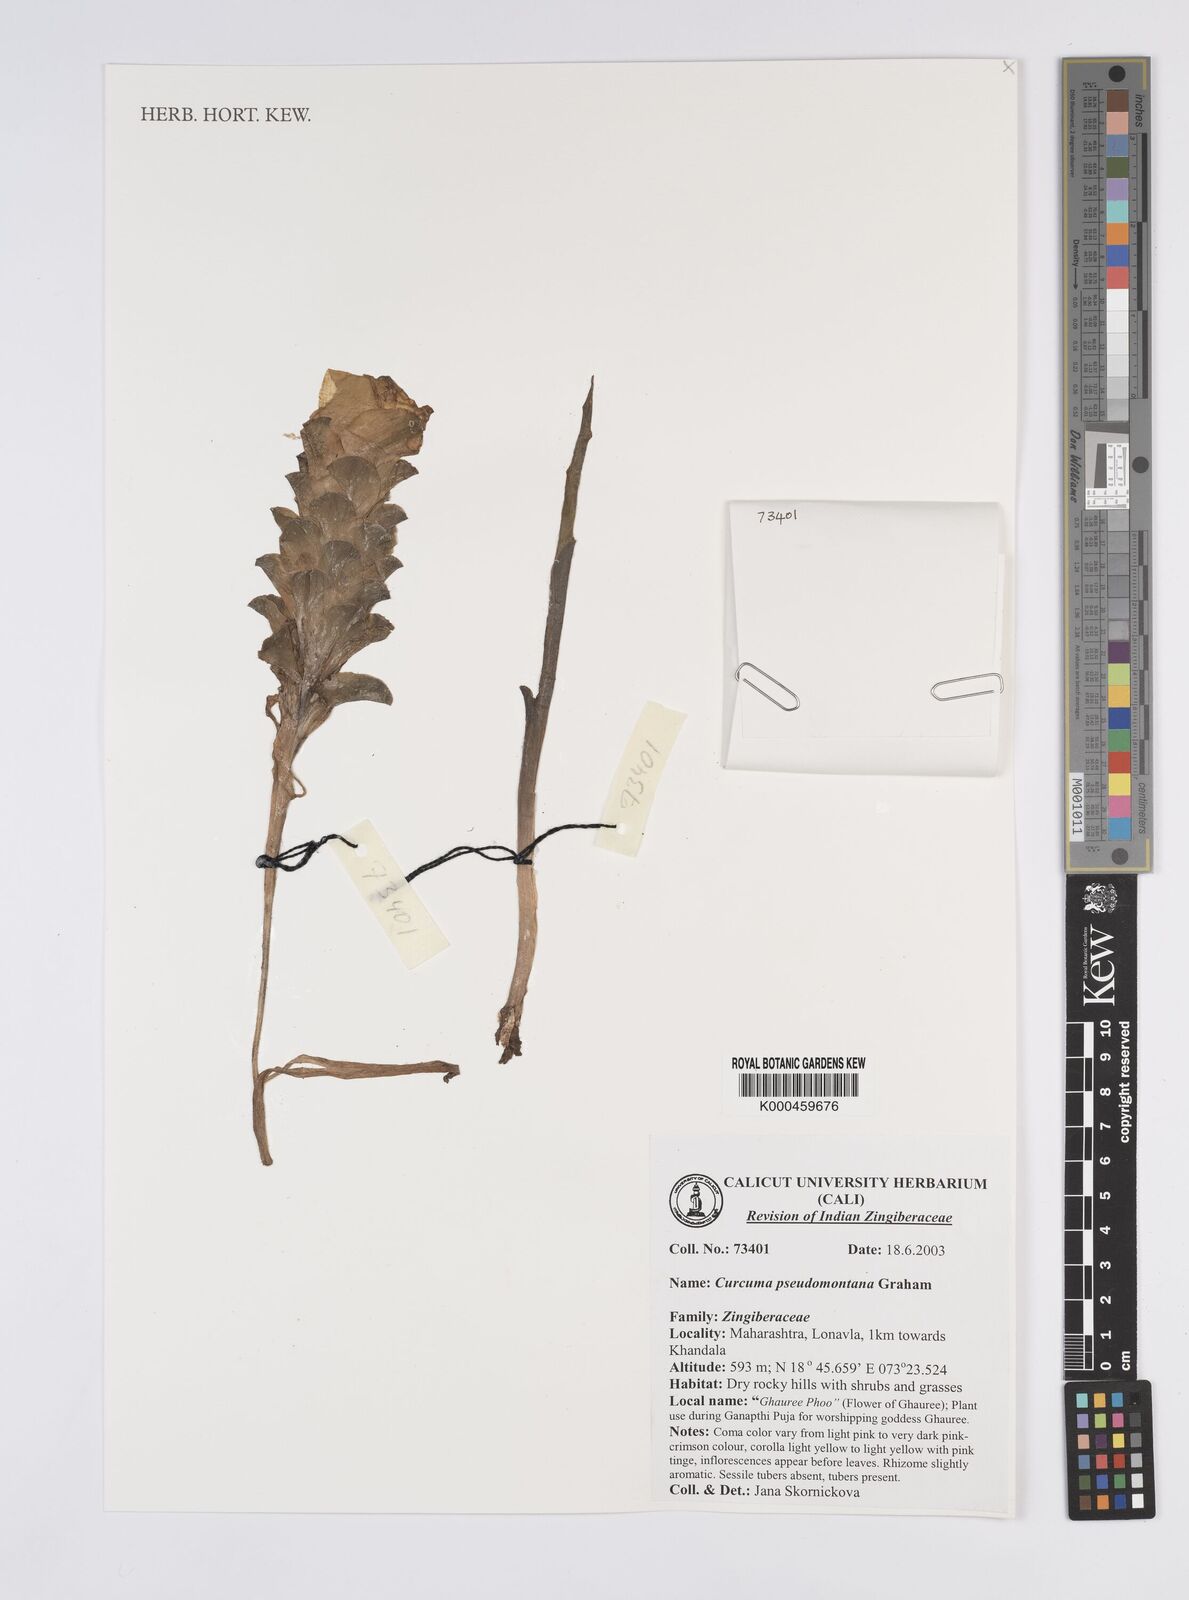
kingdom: Plantae
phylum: Tracheophyta
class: Liliopsida
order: Zingiberales
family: Zingiberaceae
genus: Curcuma
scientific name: Curcuma pseudomontana
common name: Hill turmeric
